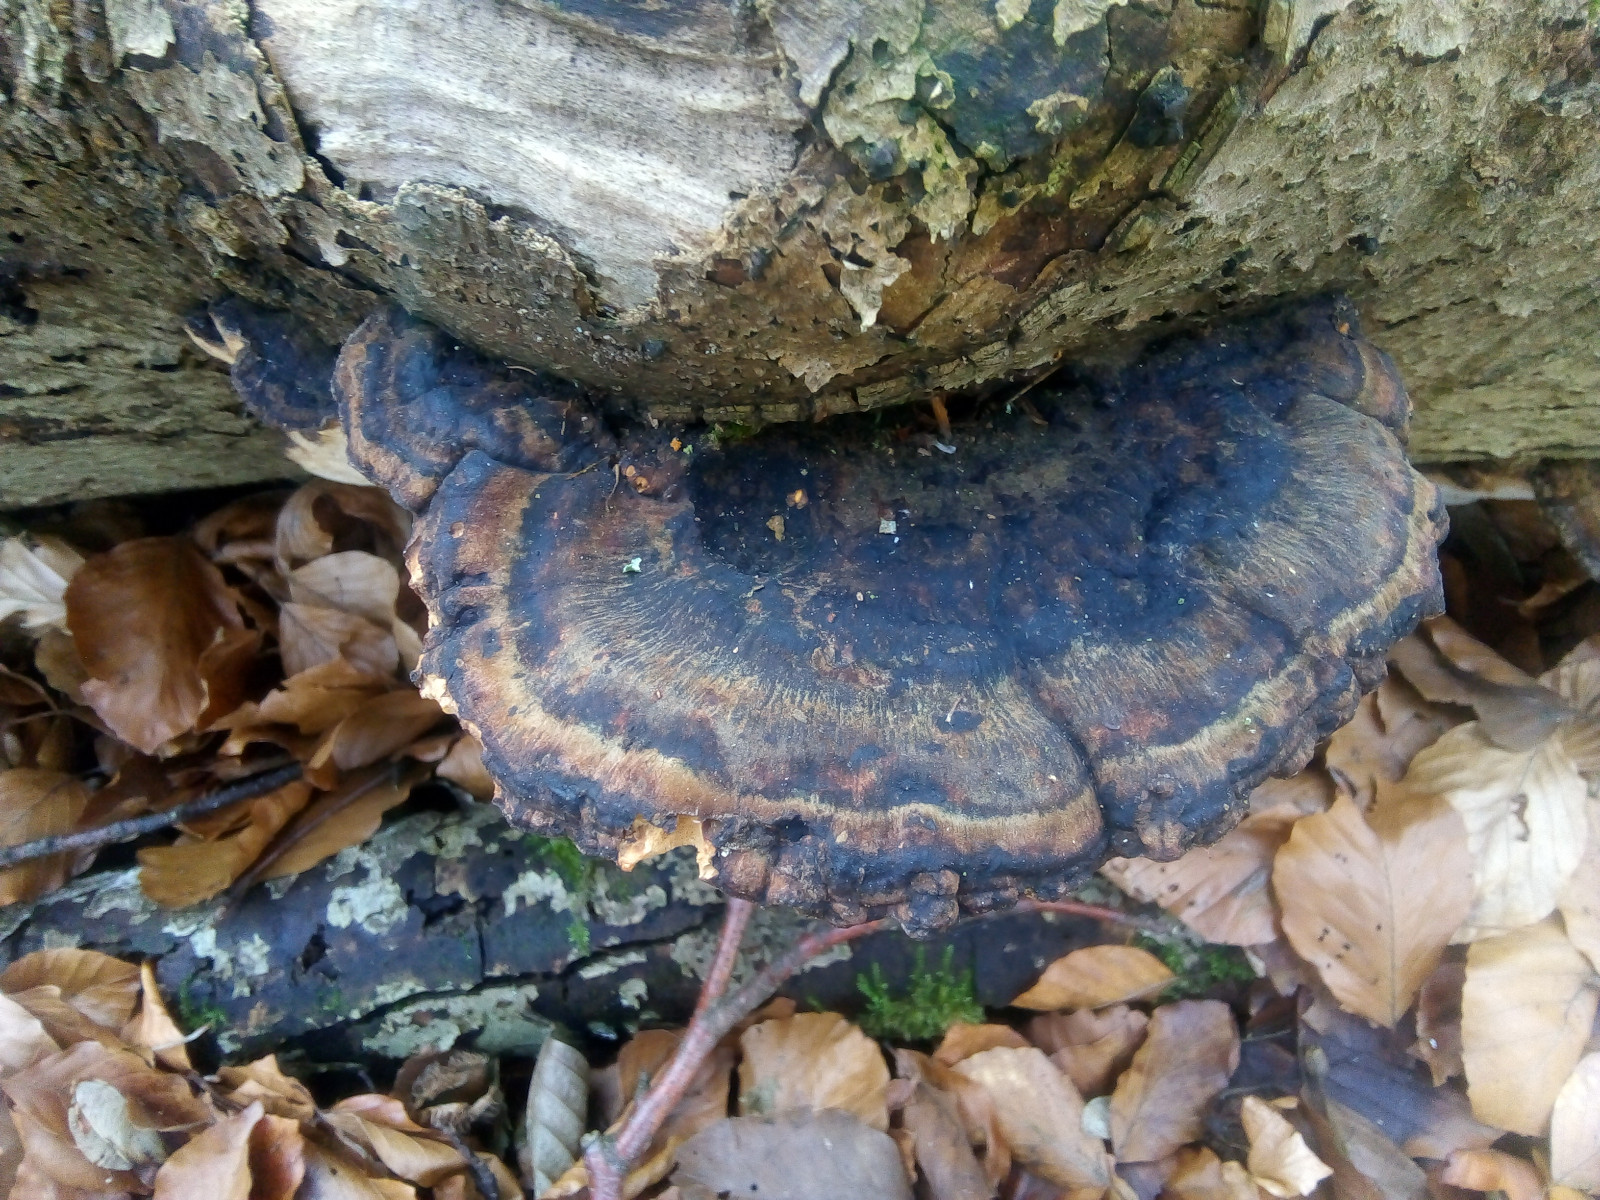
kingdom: Fungi
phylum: Basidiomycota
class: Agaricomycetes
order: Polyporales
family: Ischnodermataceae
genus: Ischnoderma
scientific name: Ischnoderma resinosum
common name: løv-tjæreporesvamp
